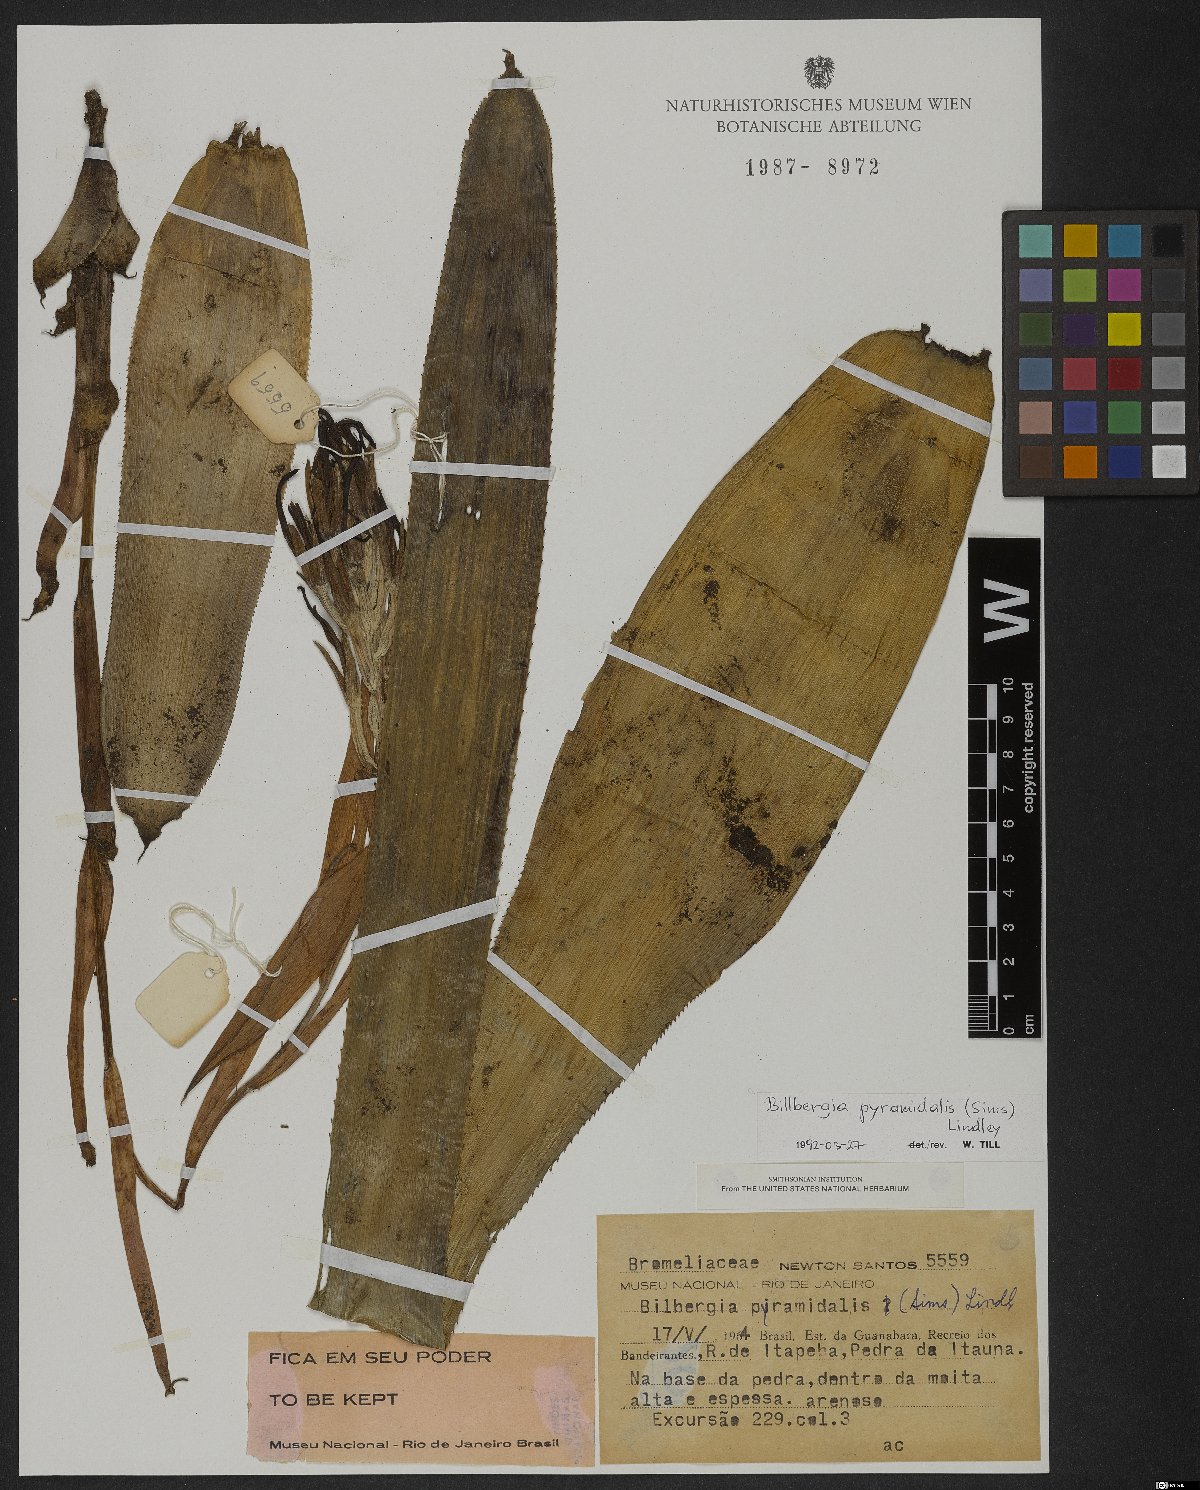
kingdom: Plantae
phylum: Tracheophyta
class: Liliopsida
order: Poales
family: Bromeliaceae
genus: Billbergia
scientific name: Billbergia pyramidalis
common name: Foolproofplant
